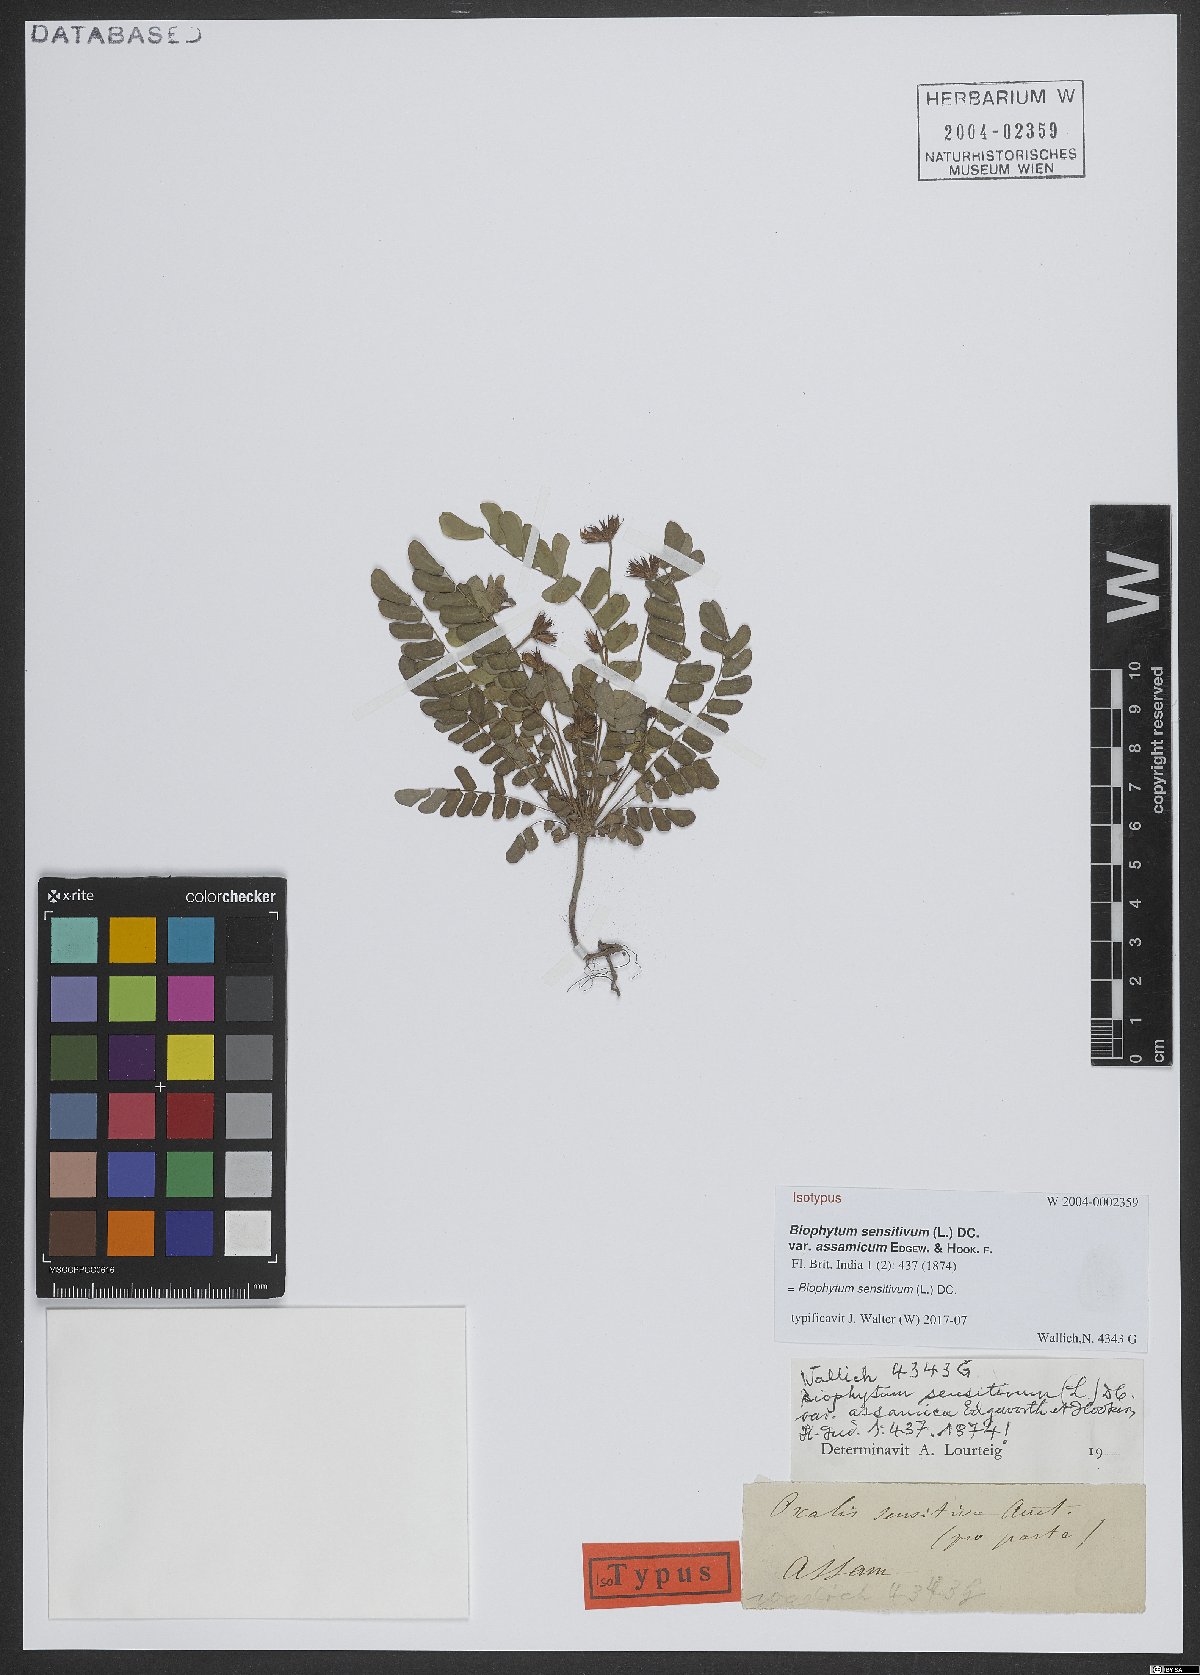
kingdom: Plantae
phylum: Tracheophyta
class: Magnoliopsida
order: Oxalidales
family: Oxalidaceae
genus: Biophytum
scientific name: Biophytum sensitivum
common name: Lifeplant
